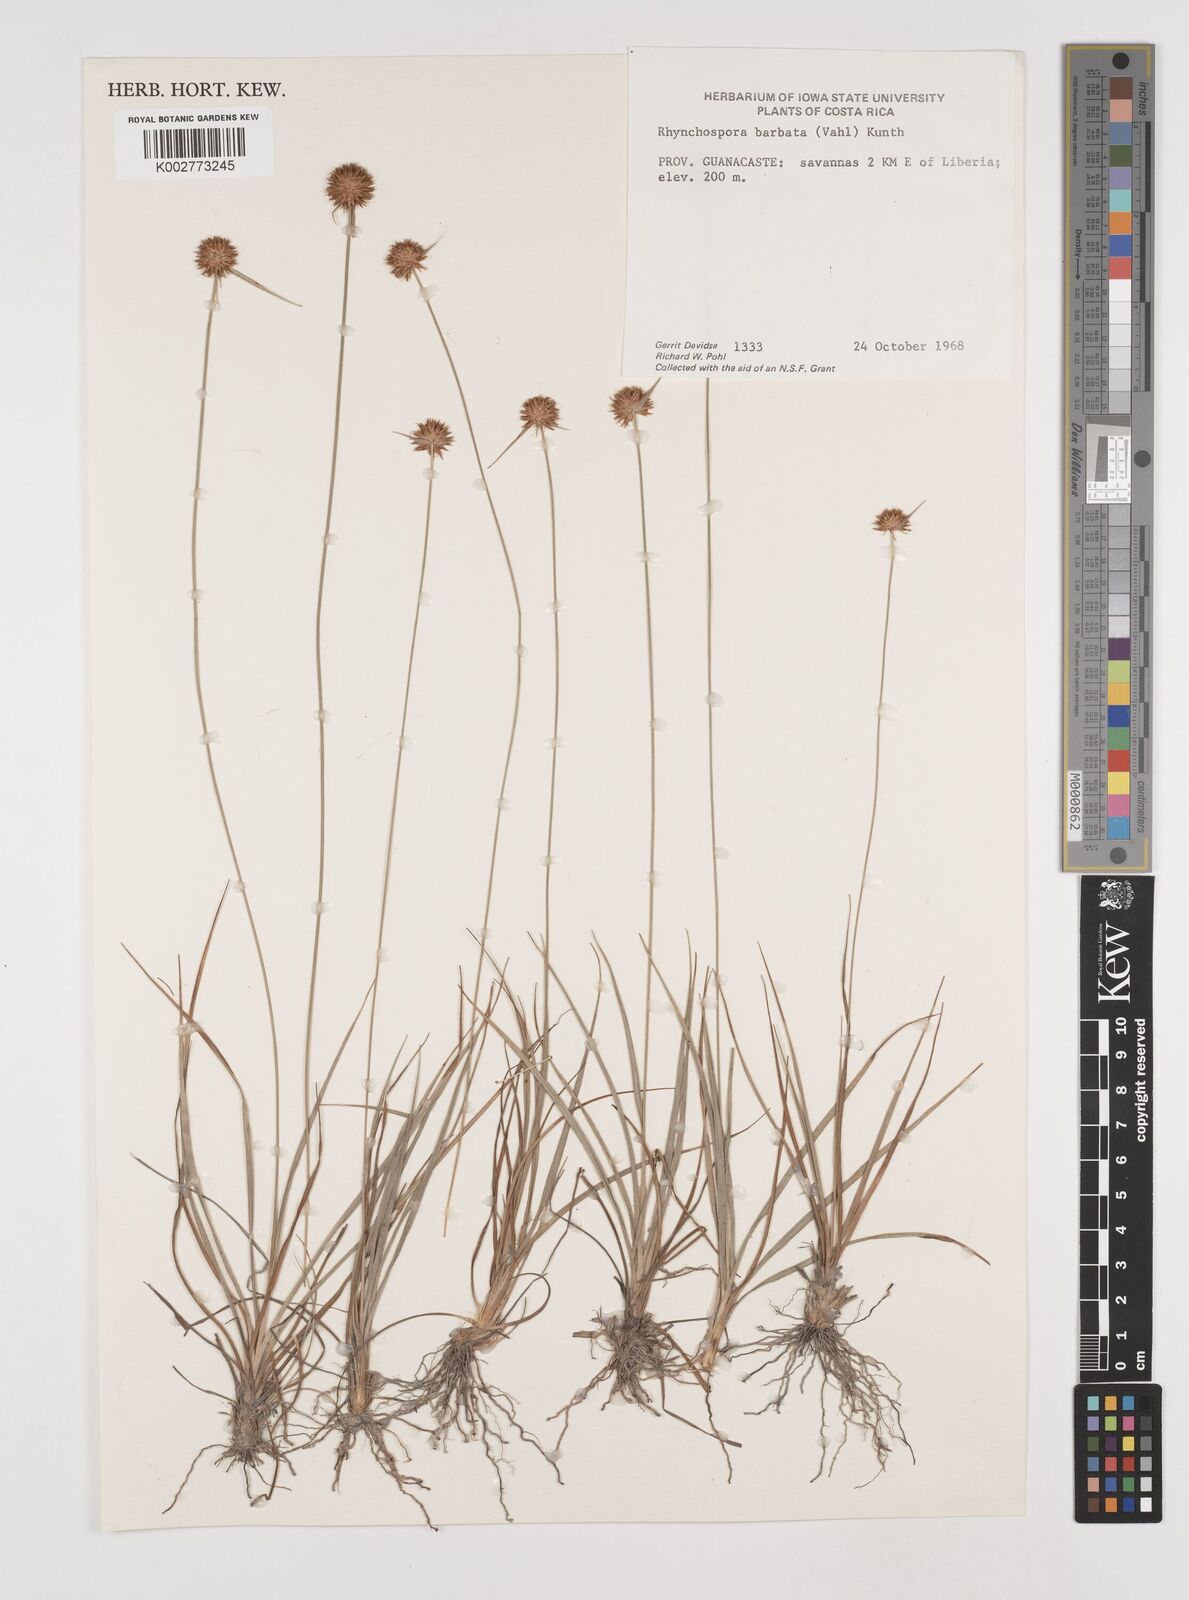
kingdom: Plantae
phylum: Tracheophyta
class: Liliopsida
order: Poales
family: Cyperaceae
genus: Rhynchospora
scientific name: Rhynchospora barbata
